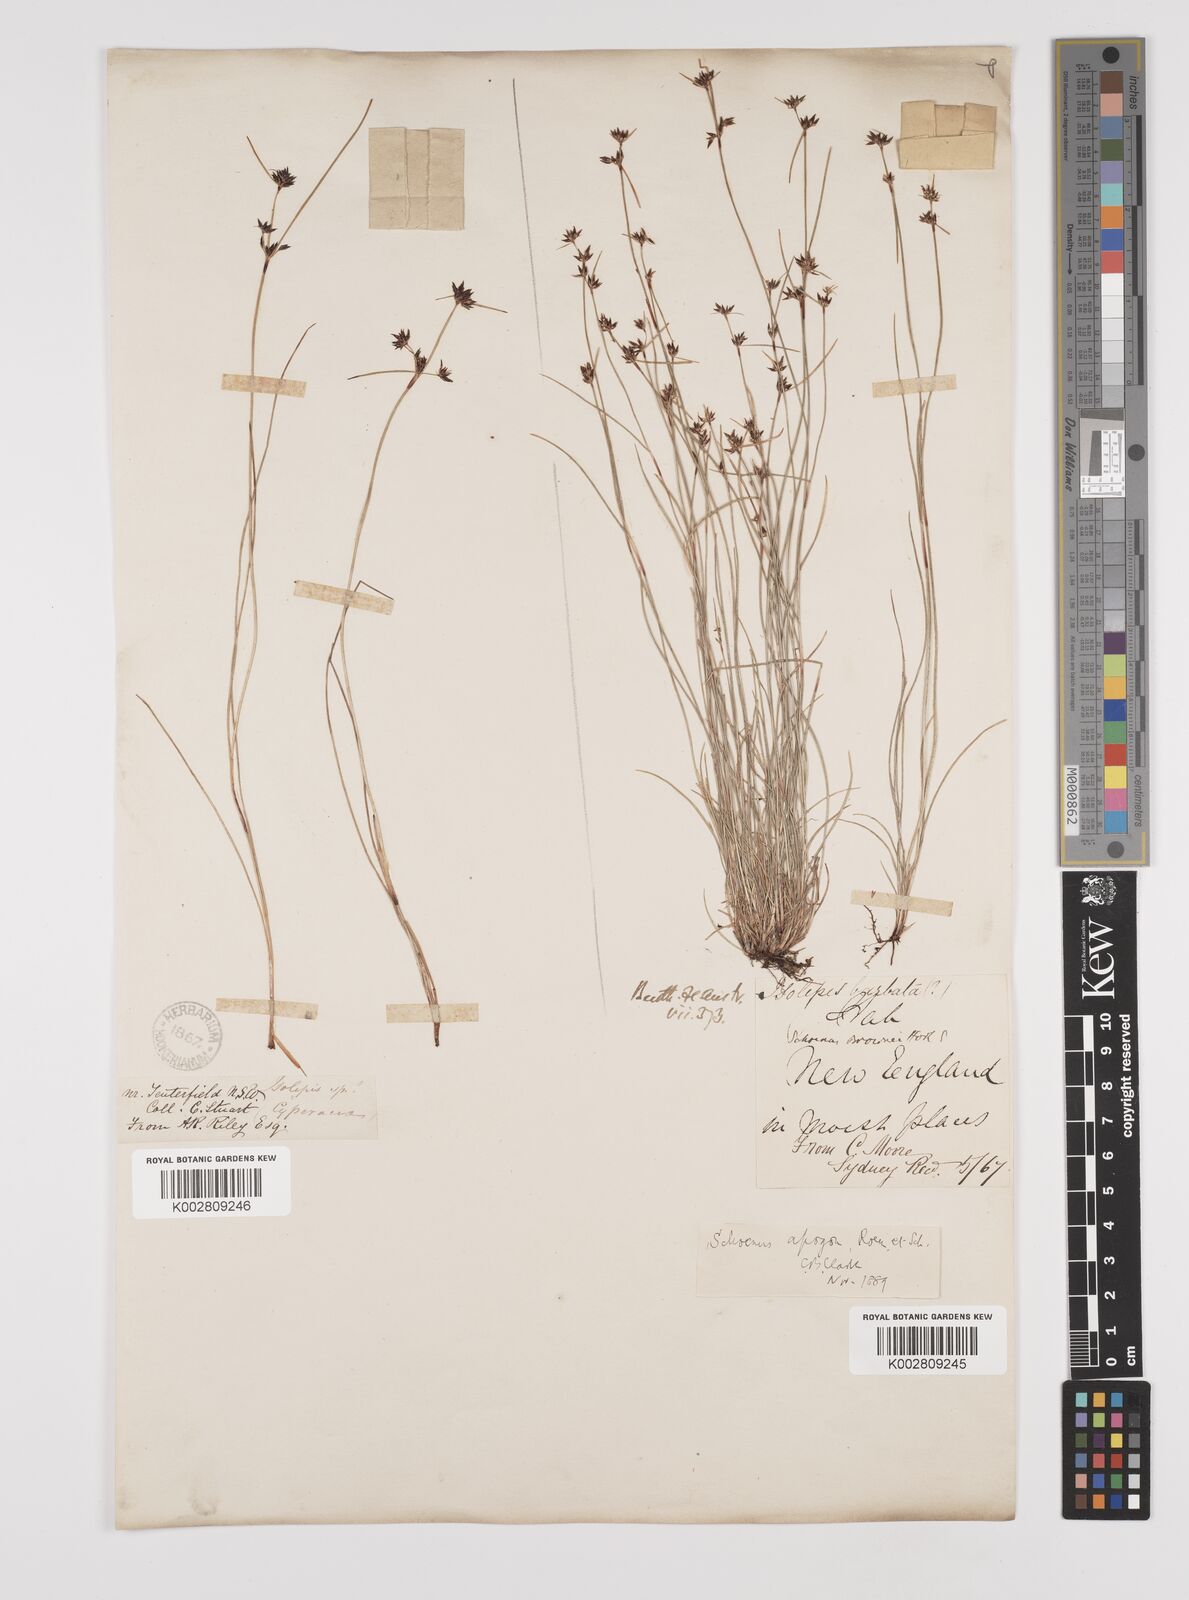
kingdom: Plantae
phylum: Tracheophyta
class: Liliopsida
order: Poales
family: Cyperaceae
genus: Schoenus
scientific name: Schoenus apogon
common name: Smooth bogrush
